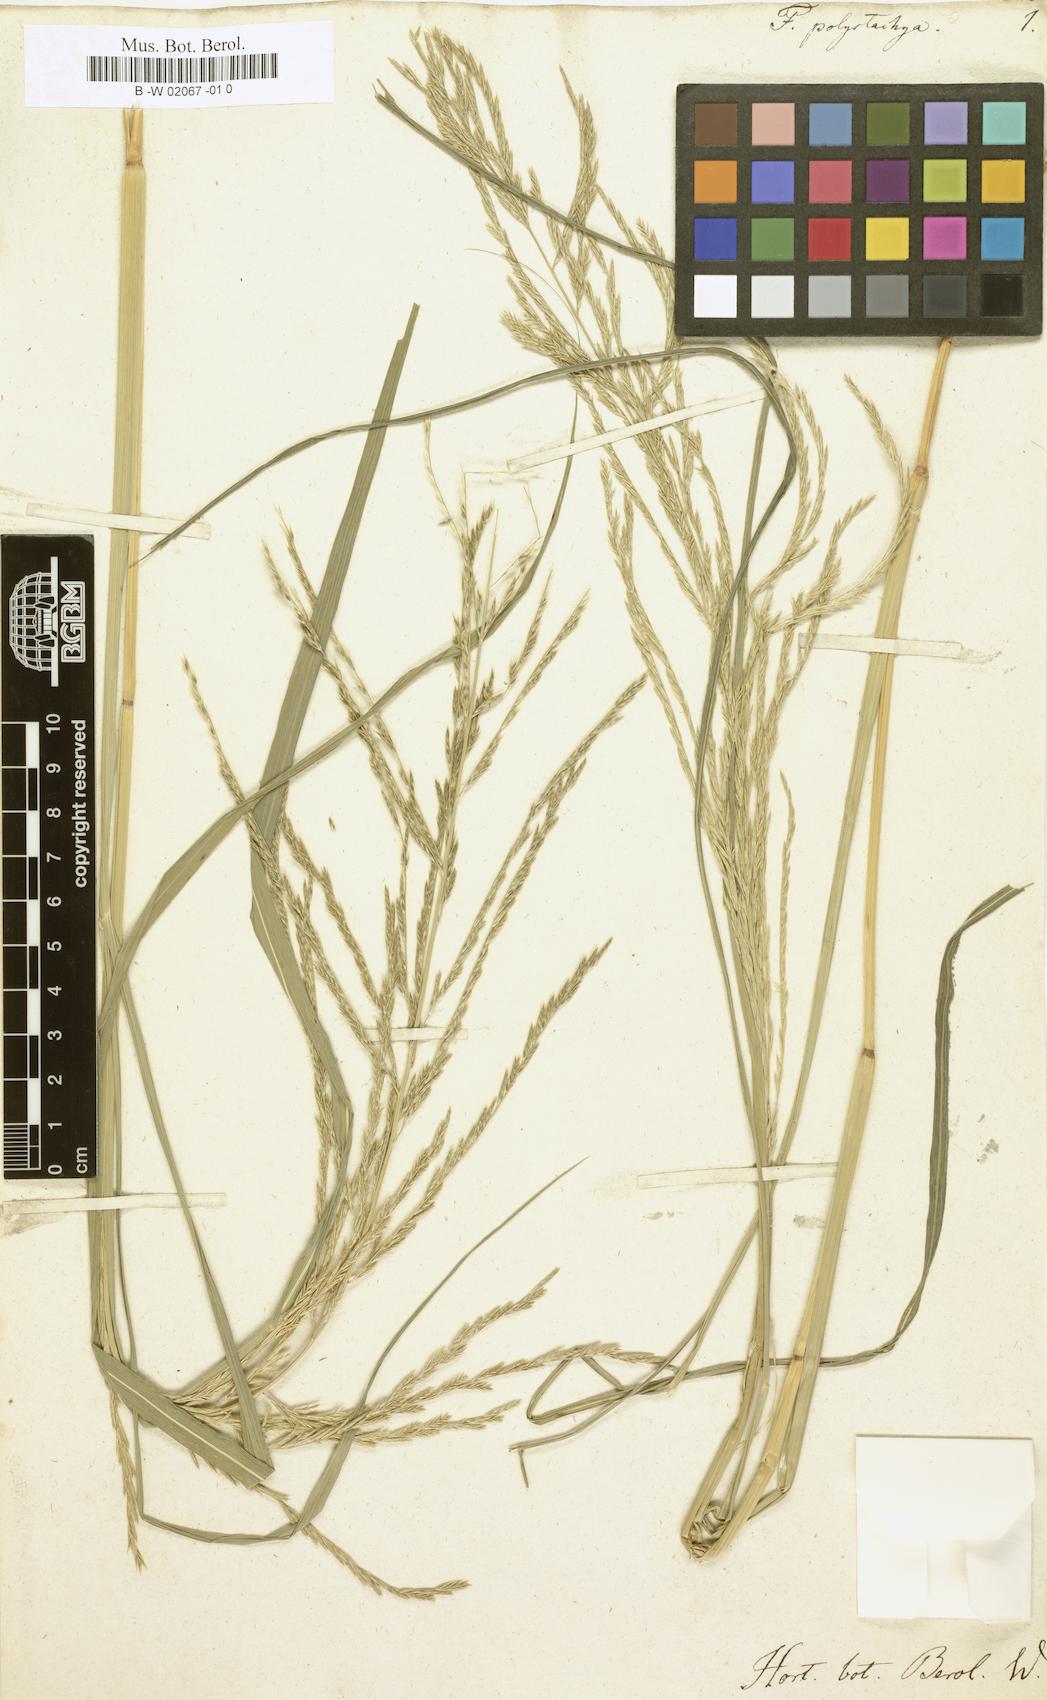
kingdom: Plantae
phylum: Tracheophyta
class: Liliopsida
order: Poales
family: Poaceae
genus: Diplachne
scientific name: Diplachne fusca
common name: Brown beetle grass
